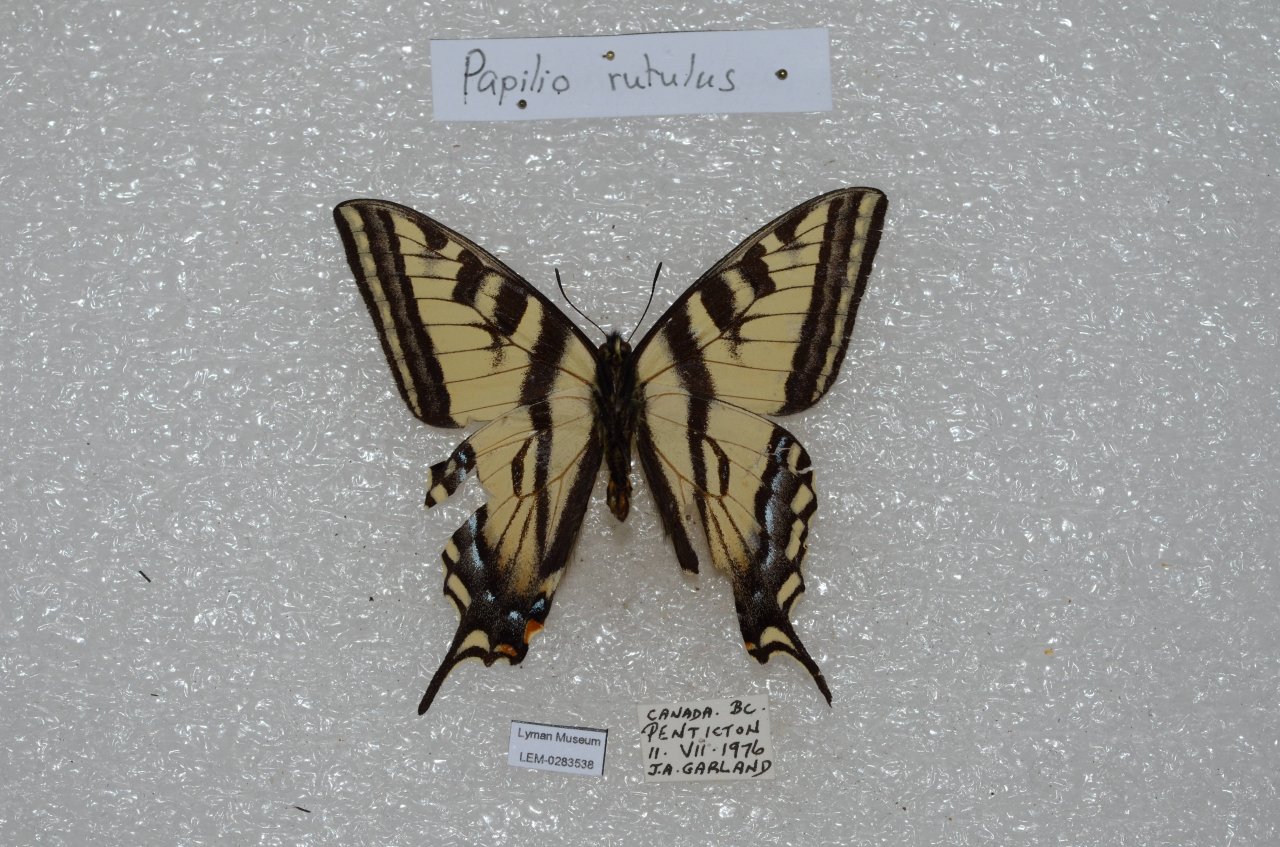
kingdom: Animalia
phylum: Arthropoda
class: Insecta
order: Lepidoptera
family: Papilionidae
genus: Pterourus
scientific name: Pterourus rutulus
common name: Western Tiger Swallowtail
